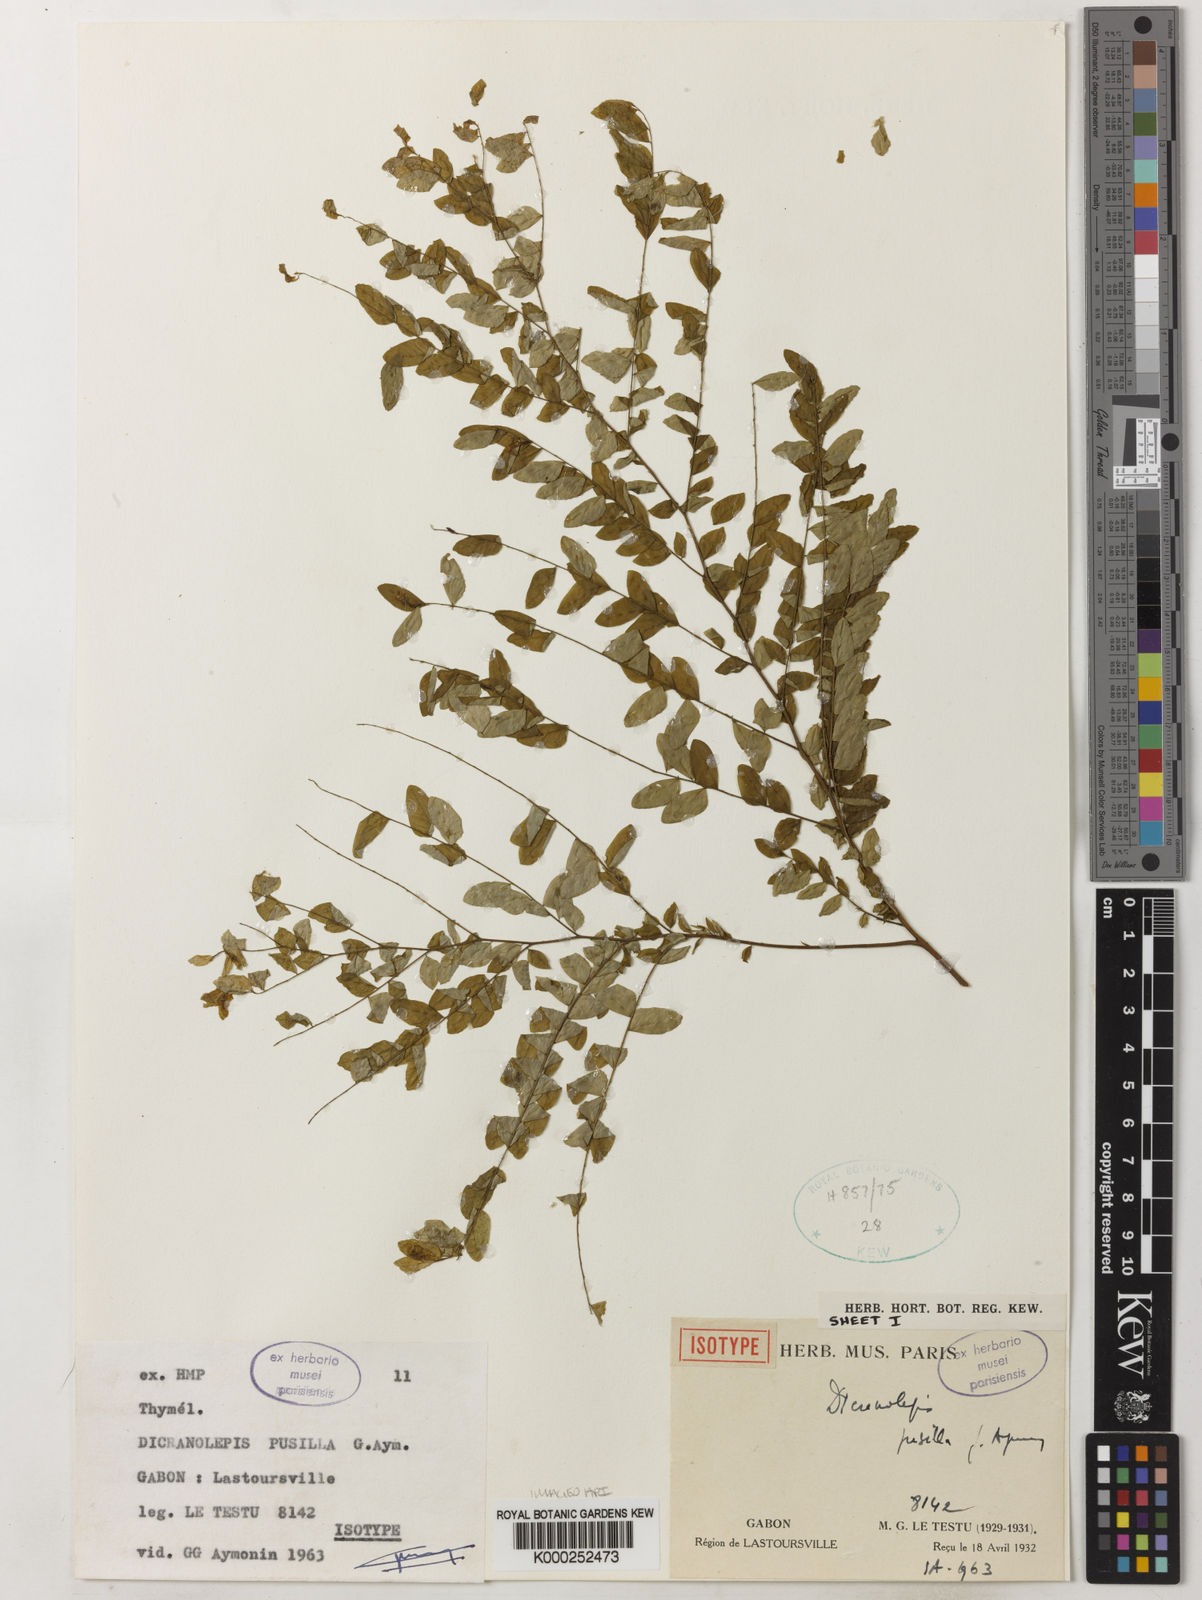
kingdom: Plantae
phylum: Tracheophyta
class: Magnoliopsida
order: Malvales
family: Thymelaeaceae
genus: Dicranolepis
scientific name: Dicranolepis pusilla
